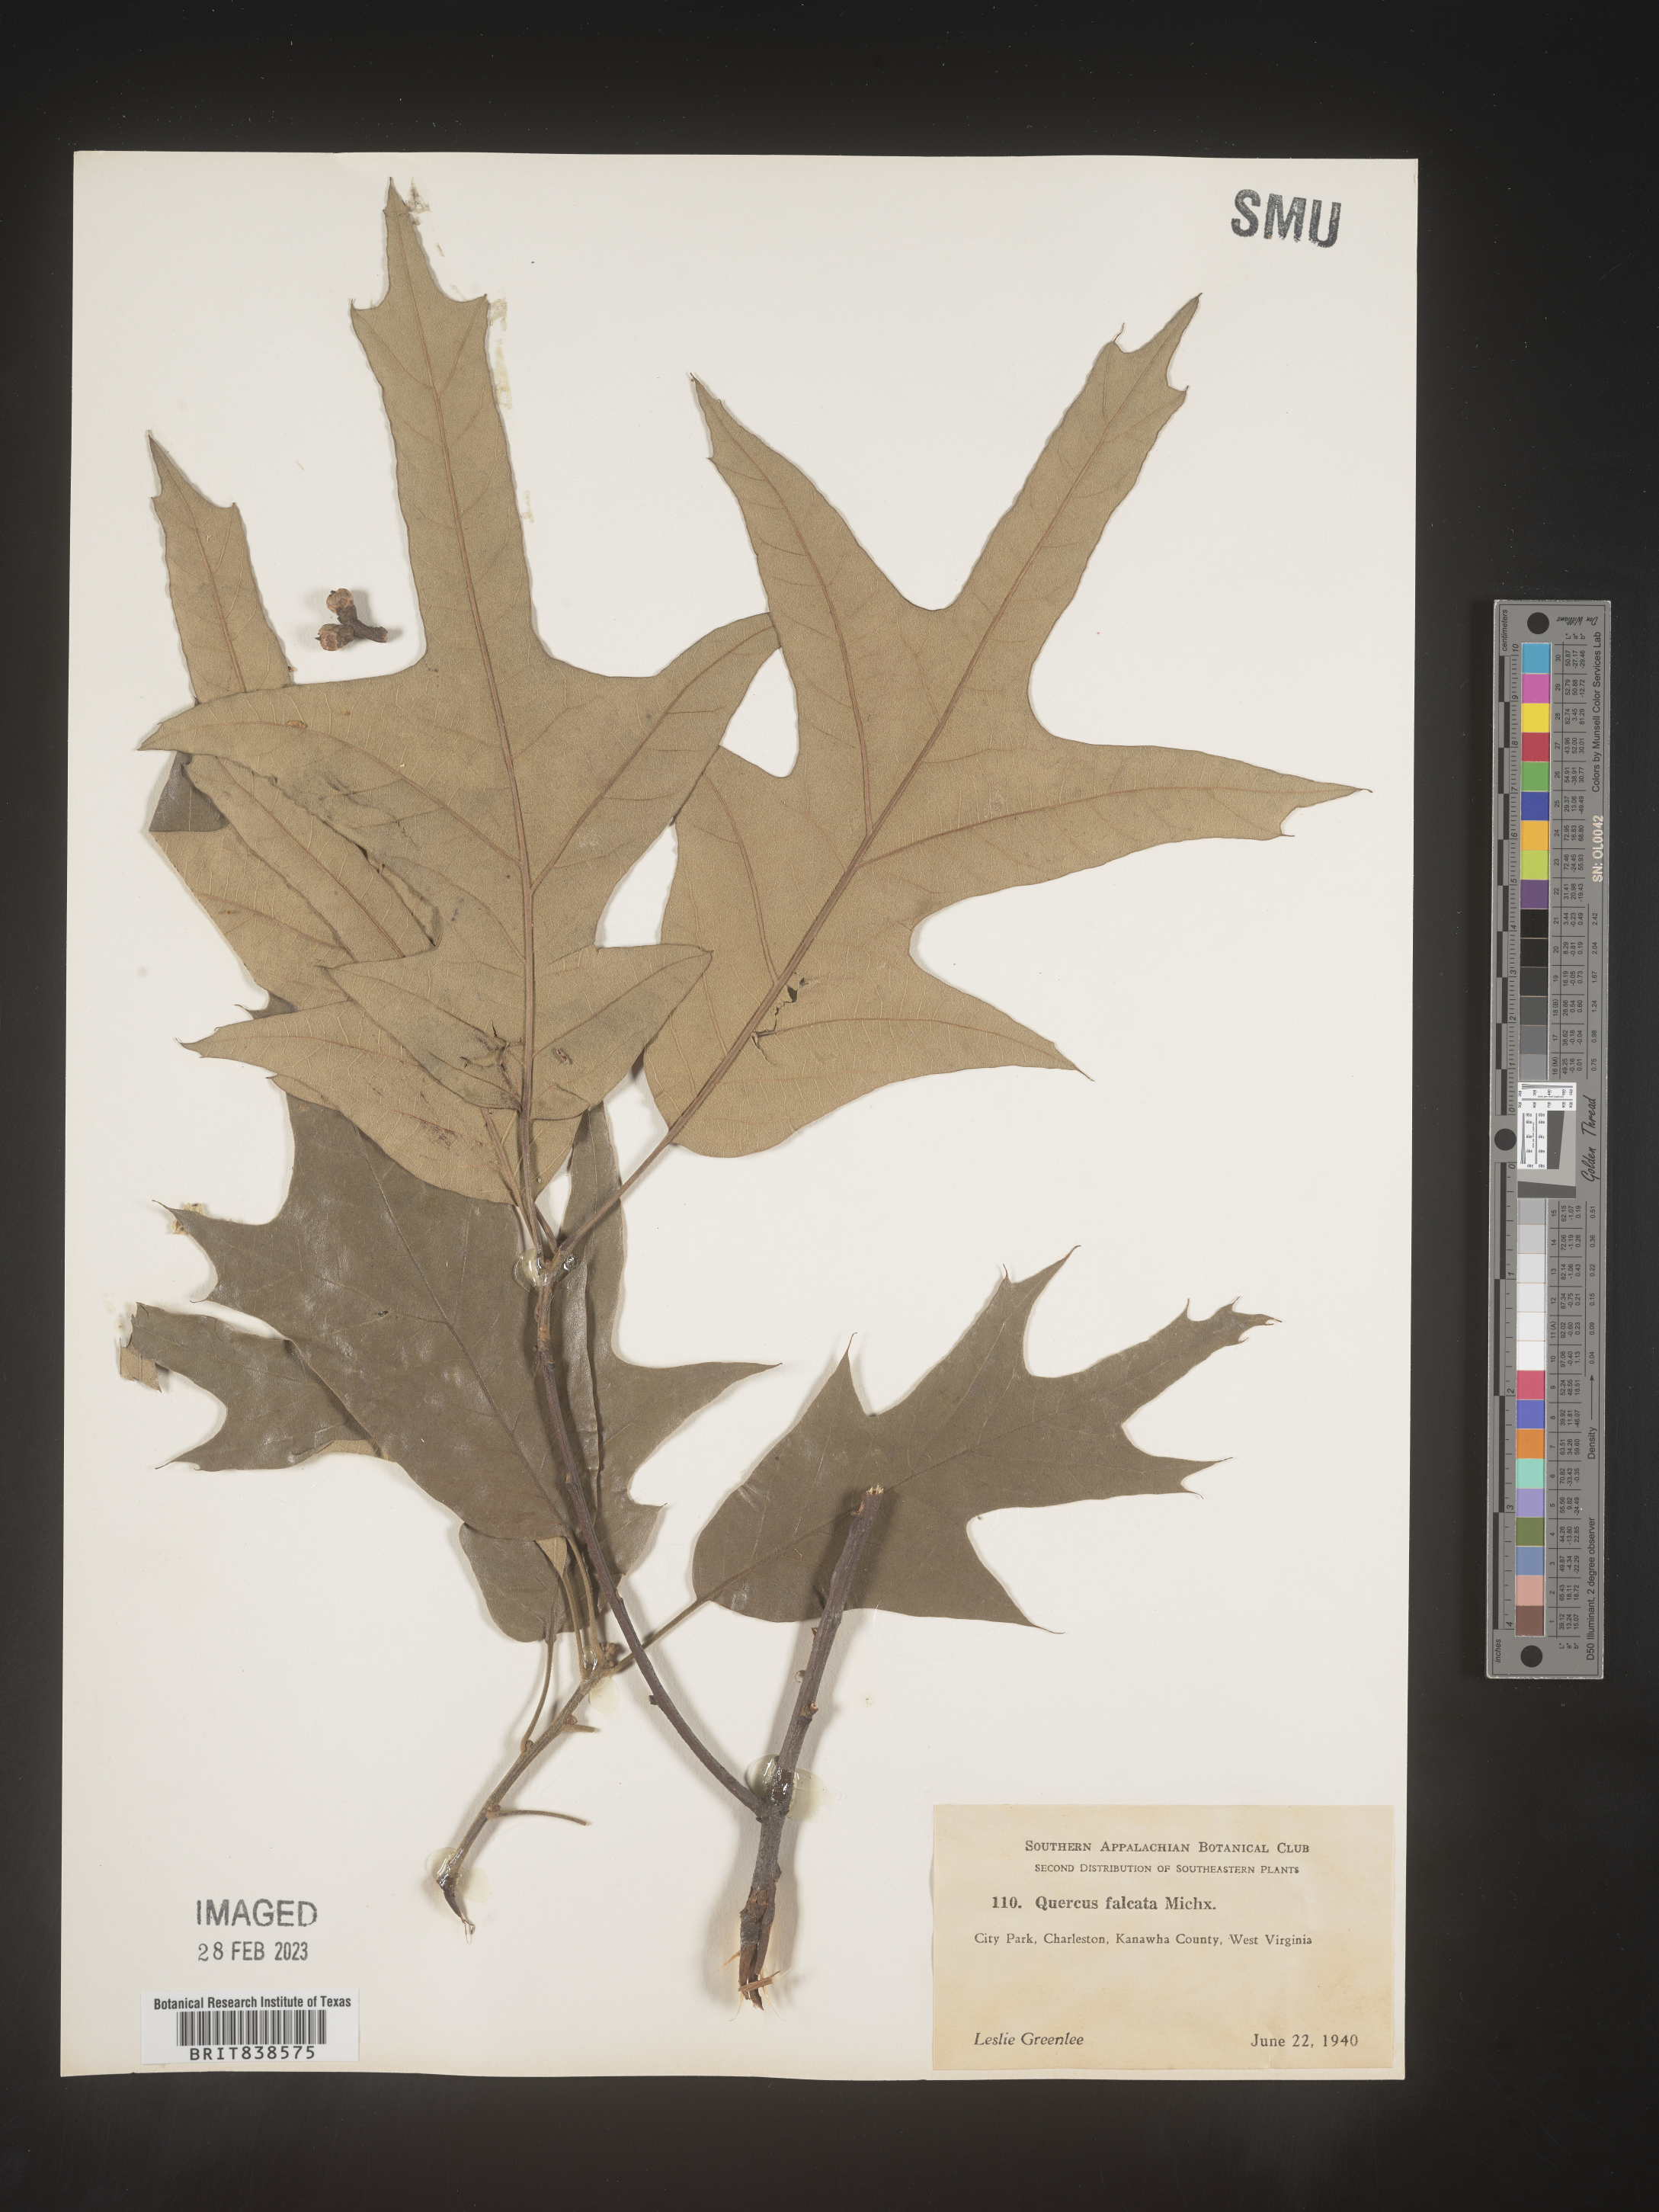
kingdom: Plantae
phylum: Tracheophyta
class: Magnoliopsida
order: Fagales
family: Fagaceae
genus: Quercus
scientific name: Quercus falcata
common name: Southern red oak
